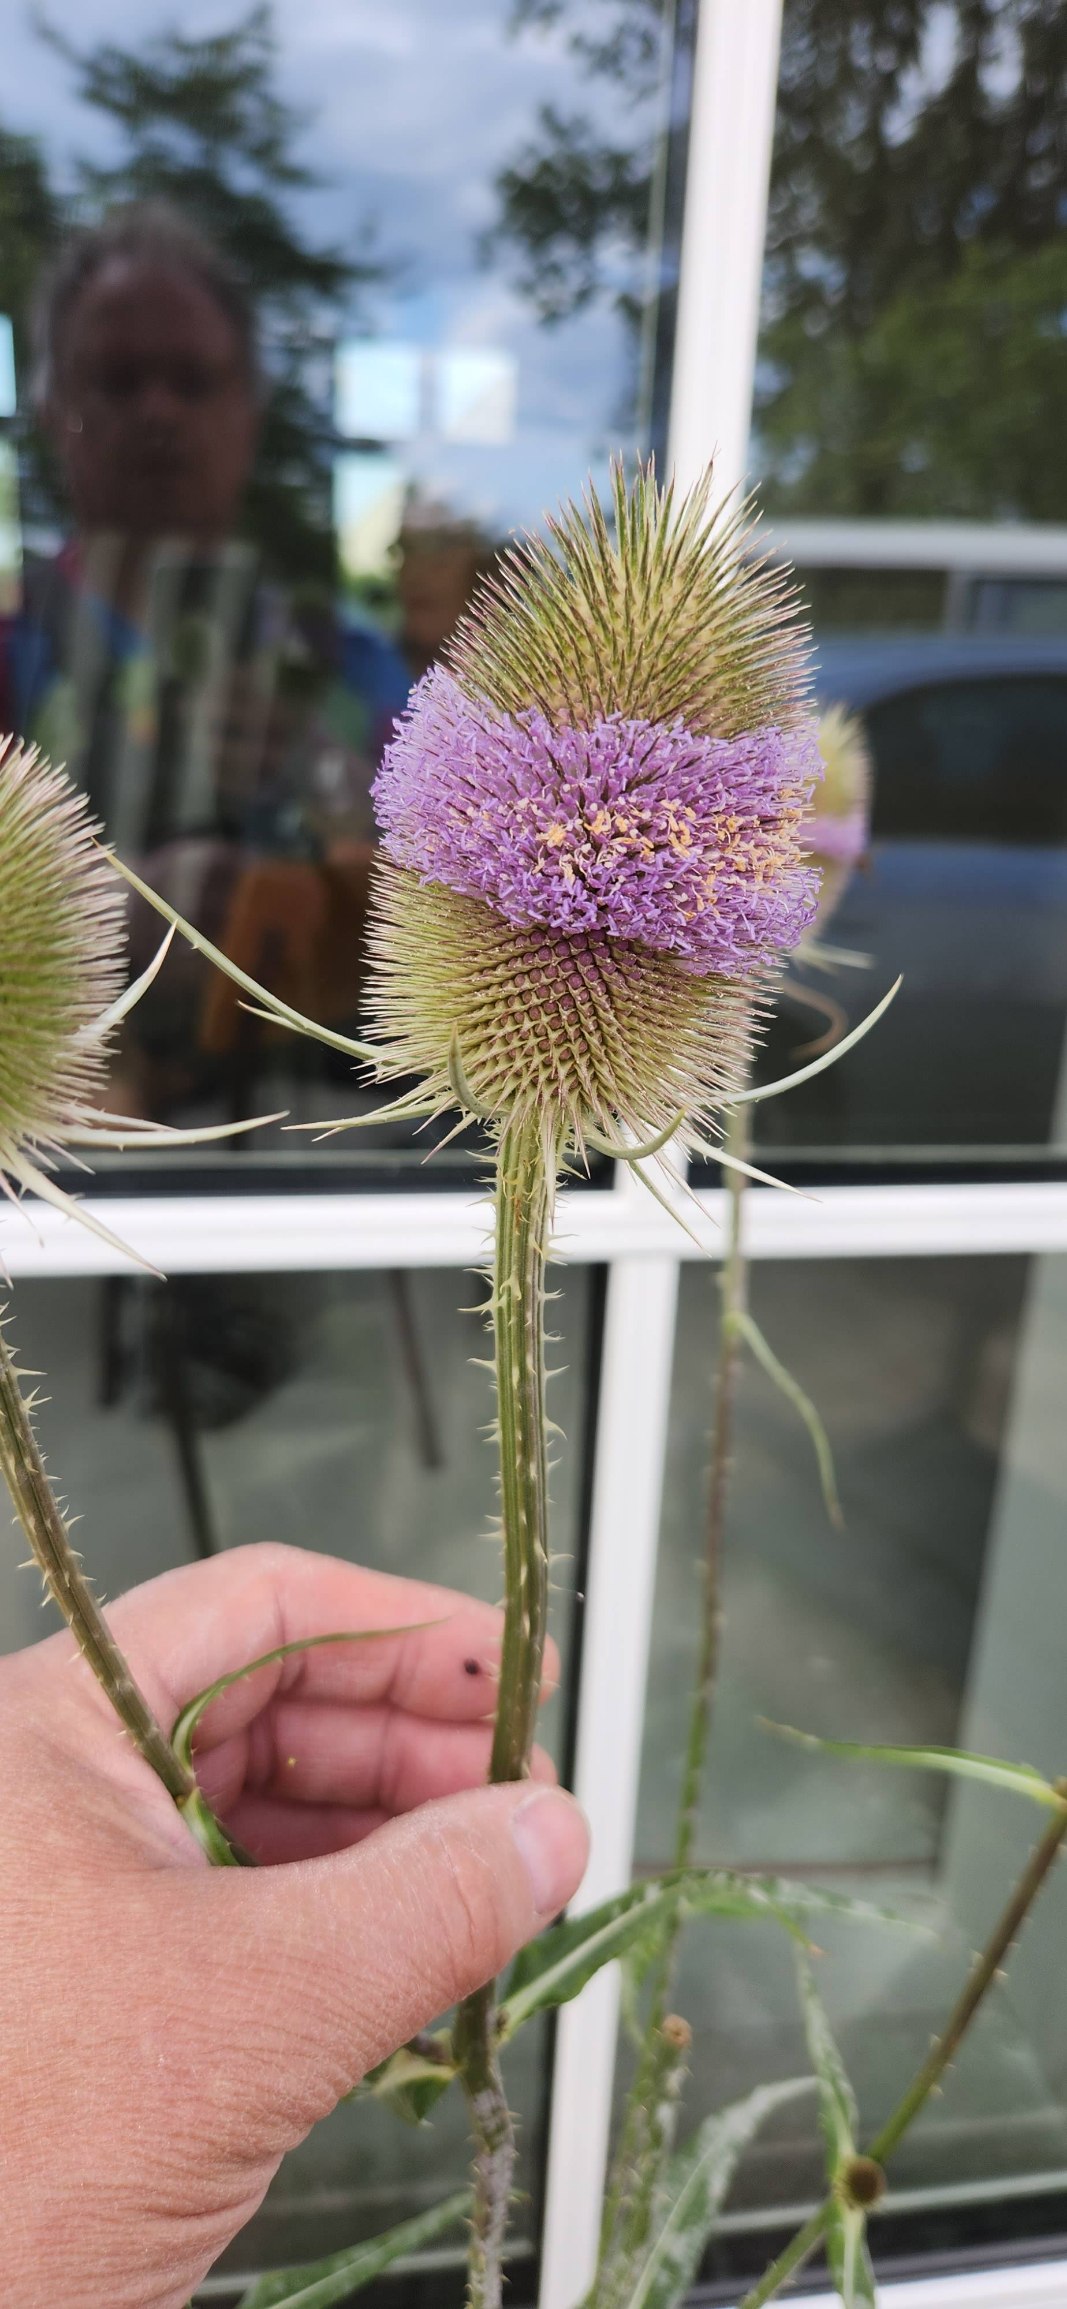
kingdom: Plantae
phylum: Tracheophyta
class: Magnoliopsida
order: Dipsacales
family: Caprifoliaceae
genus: Dipsacus
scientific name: Dipsacus fullonum
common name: Gærde-kartebolle
